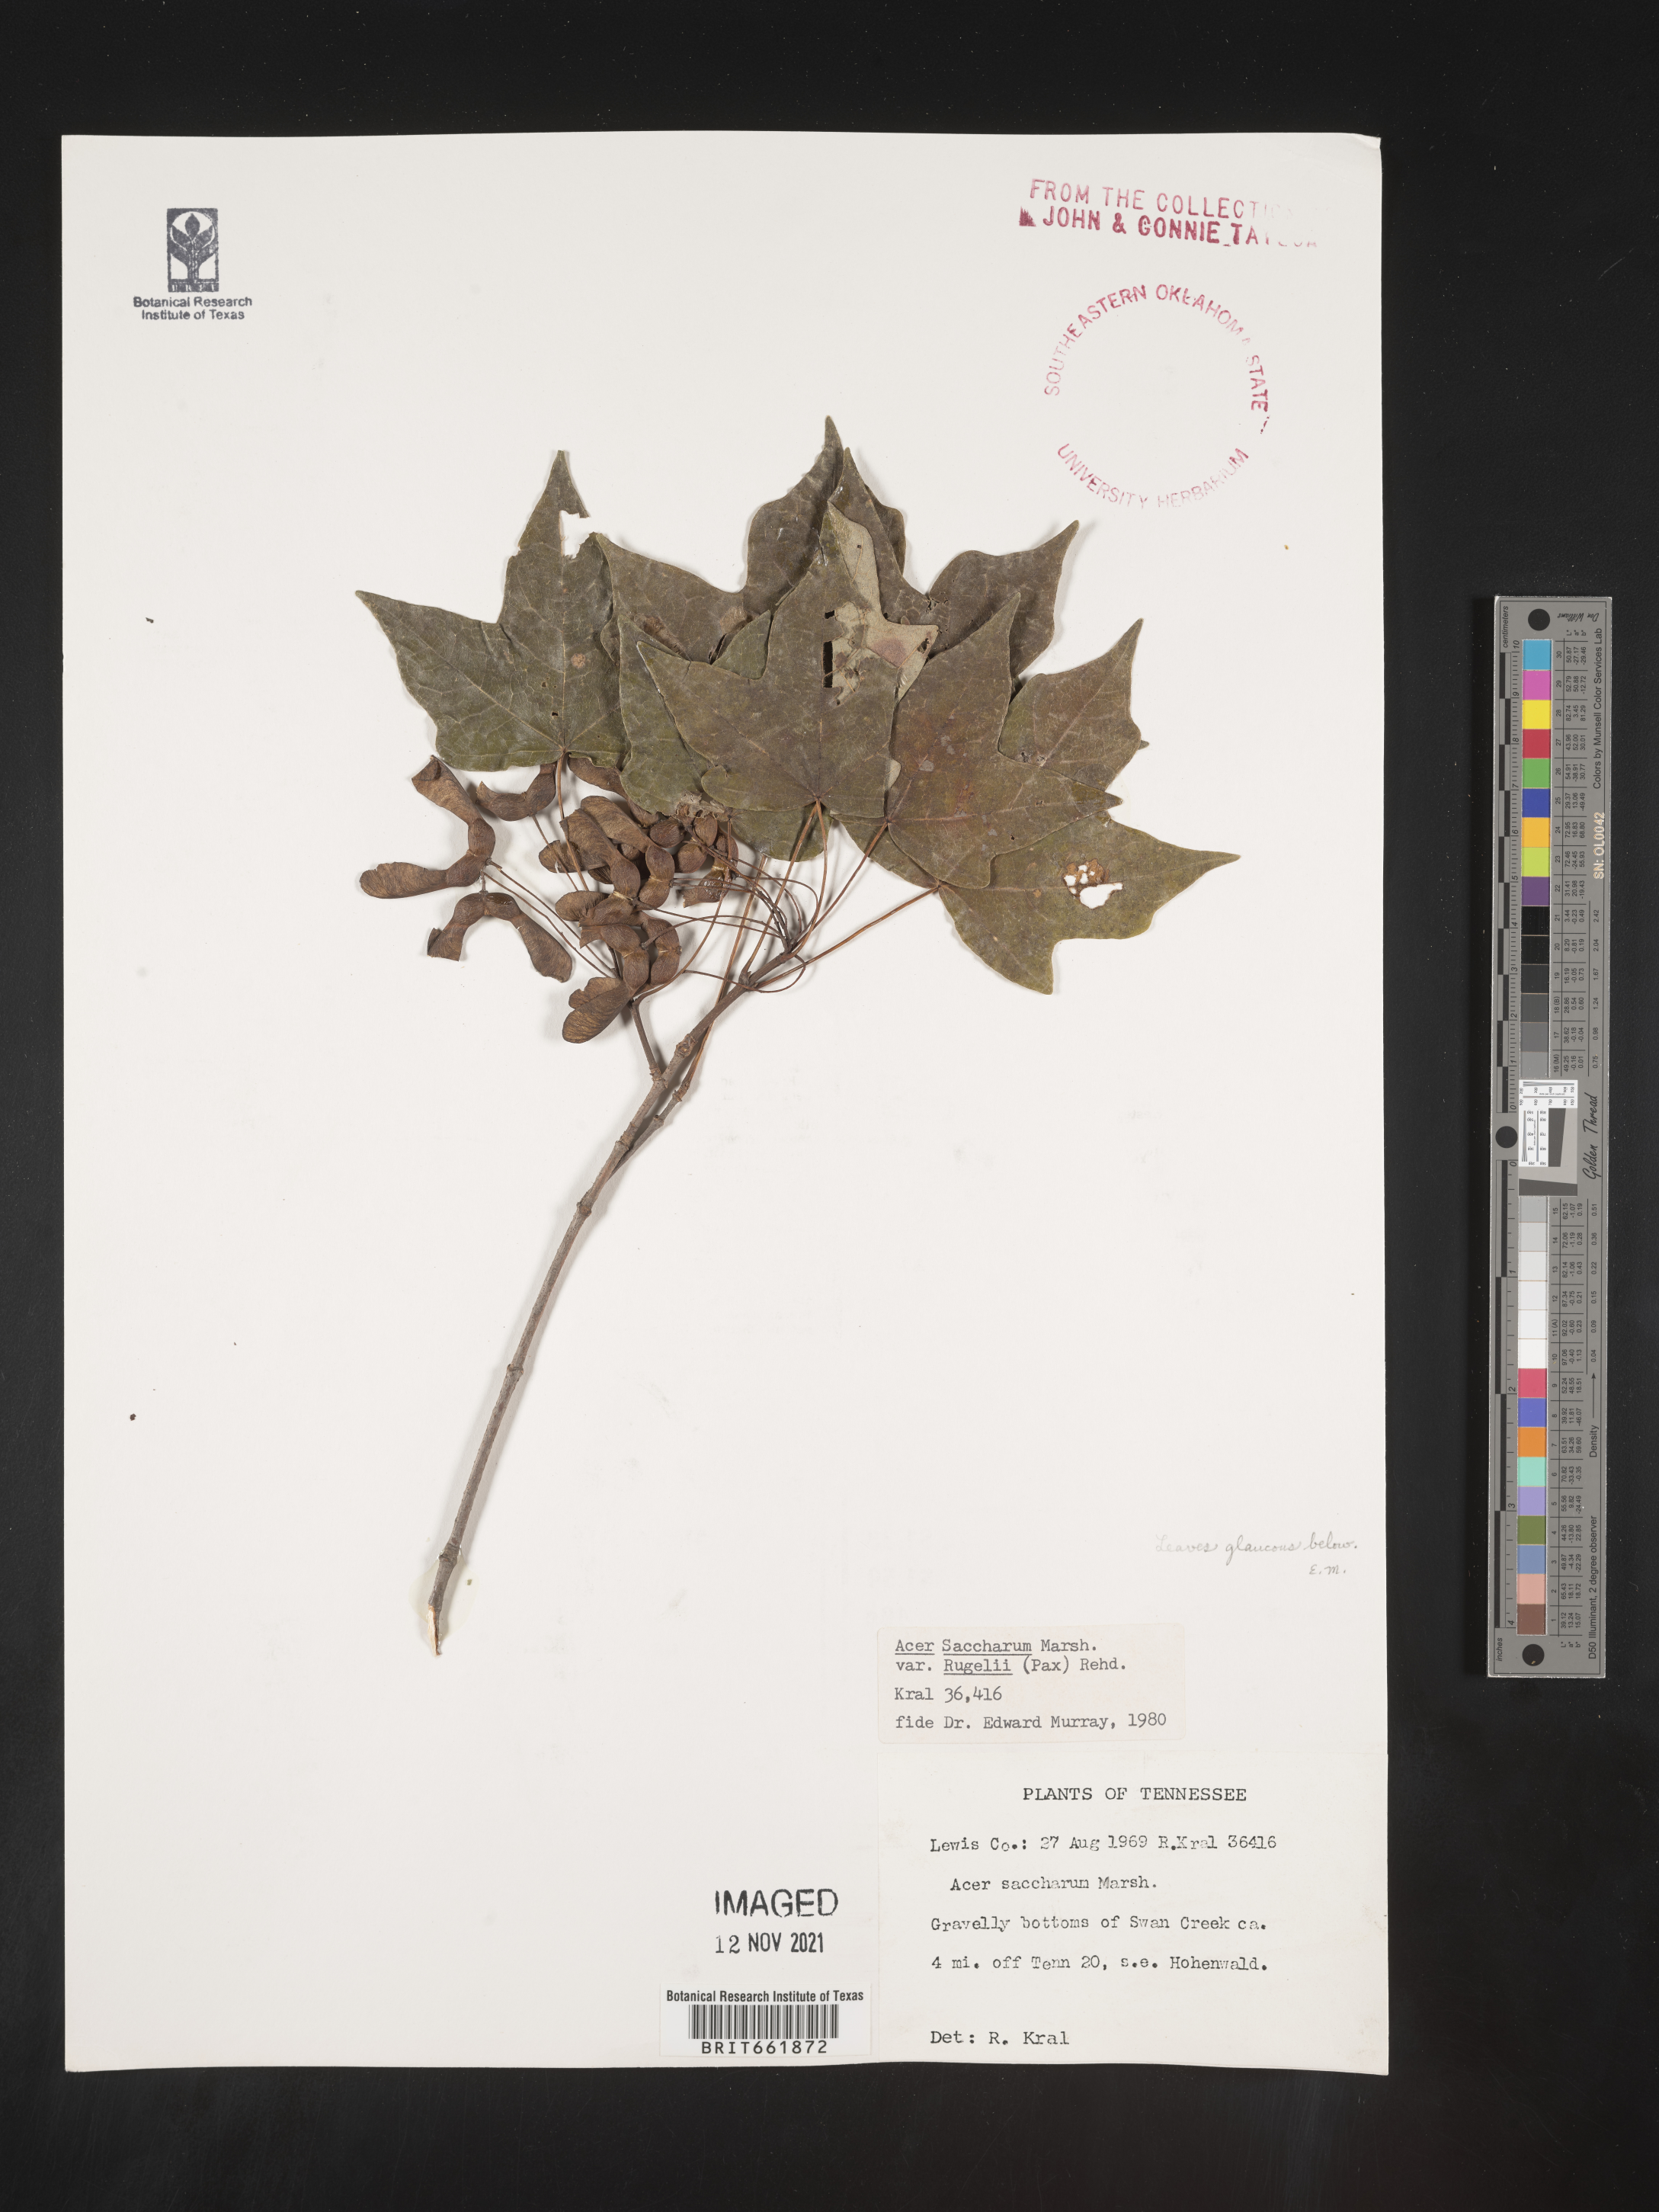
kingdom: Plantae
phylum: Tracheophyta
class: Magnoliopsida
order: Sapindales
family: Sapindaceae
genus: Acer
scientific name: Acer saccharum
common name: Sugar maple
